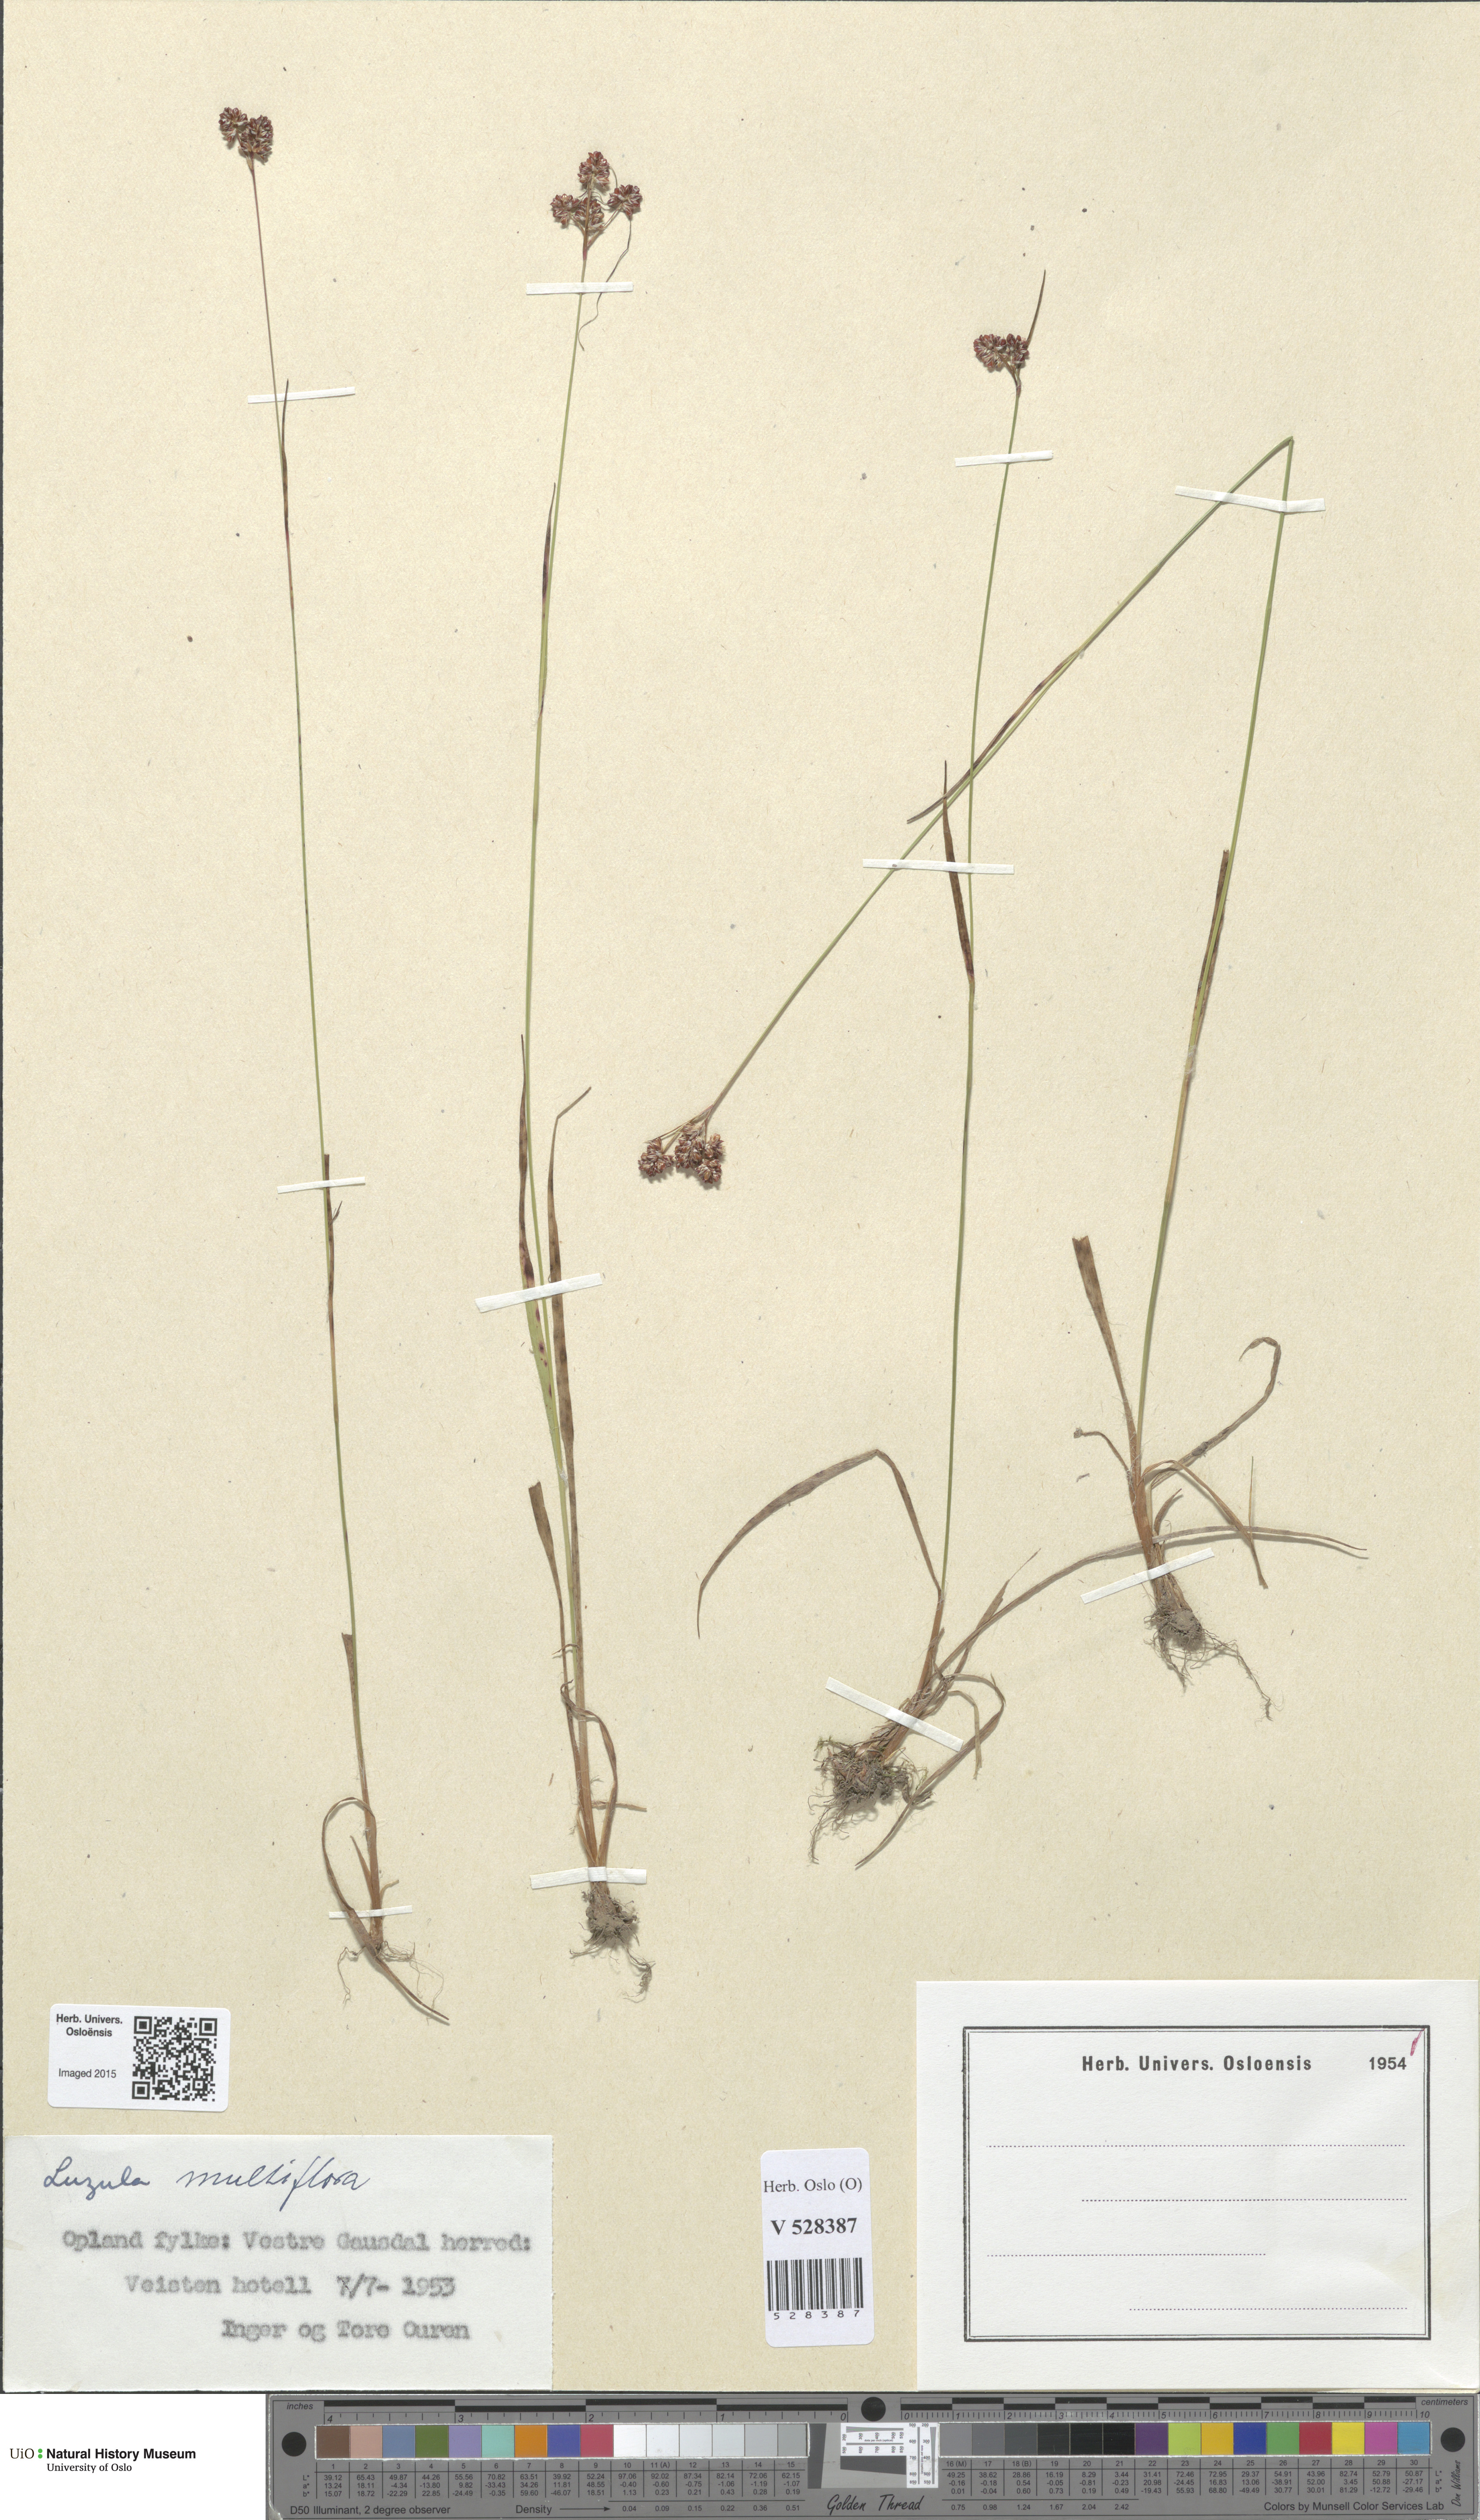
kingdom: Plantae
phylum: Tracheophyta
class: Liliopsida
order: Poales
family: Juncaceae
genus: Luzula
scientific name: Luzula multiflora
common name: Heath wood-rush
